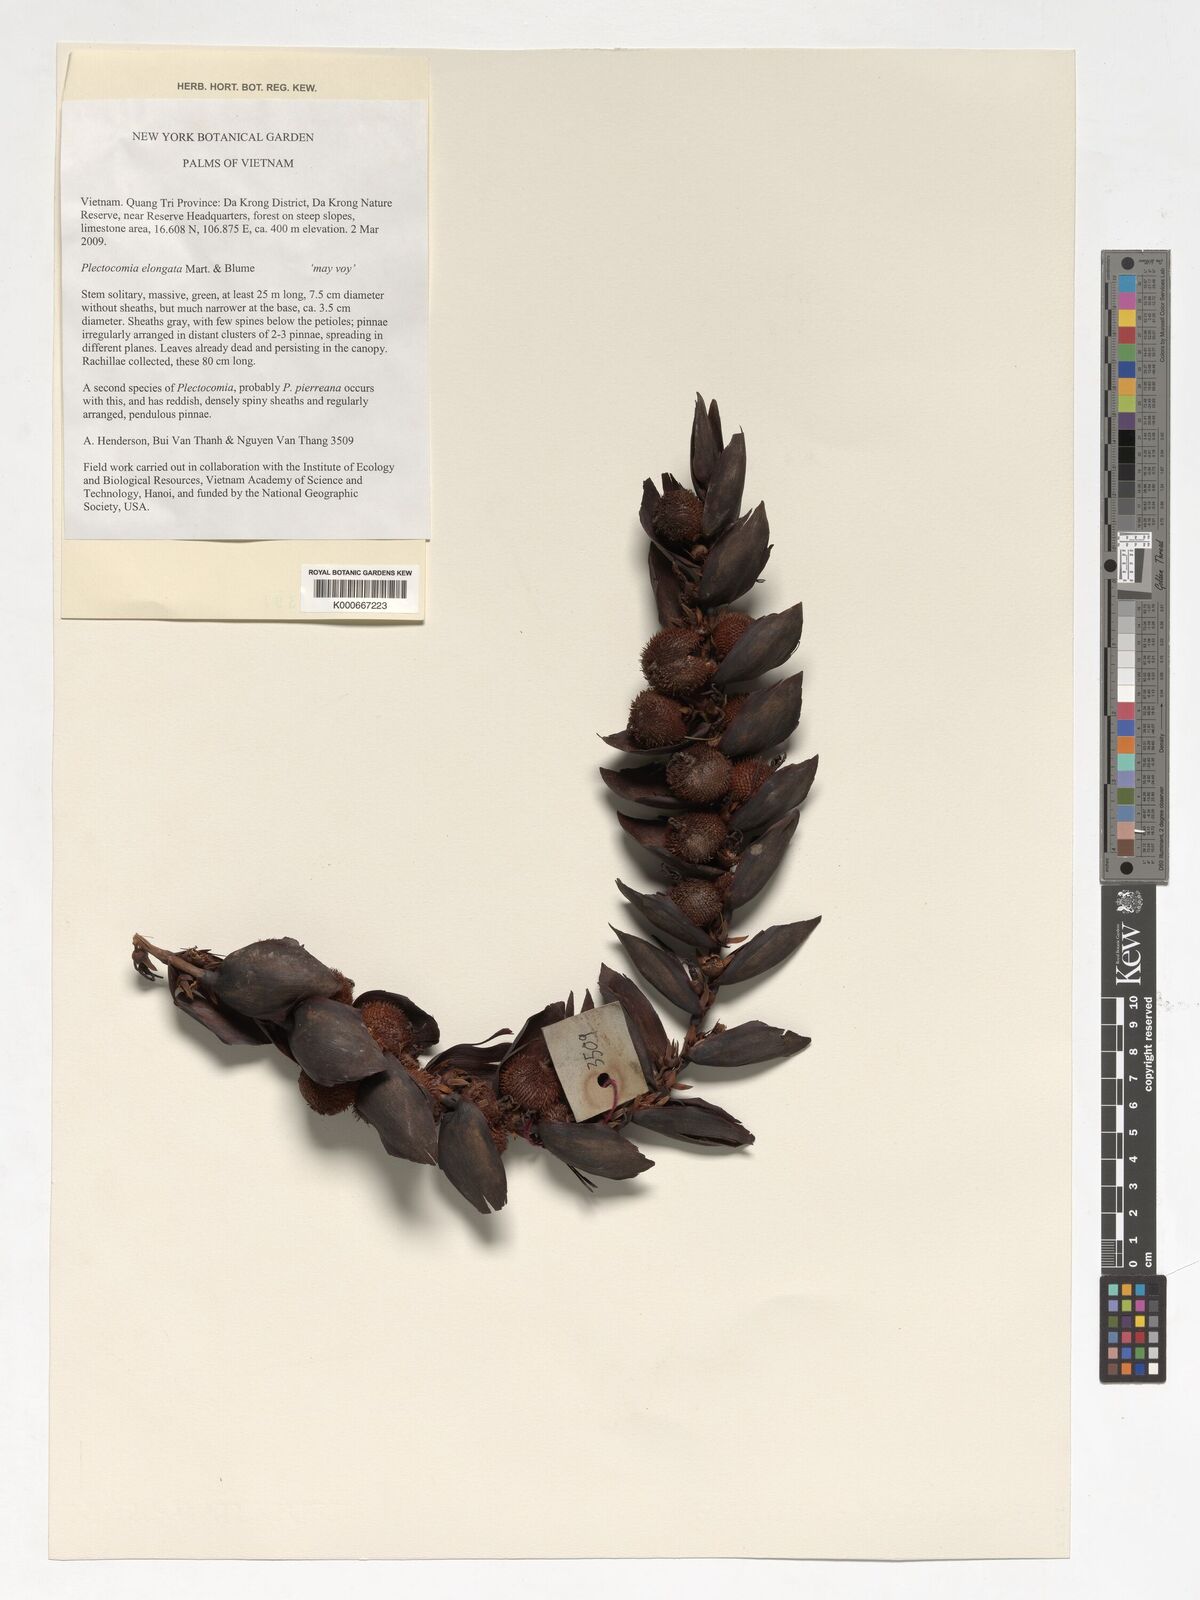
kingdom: Plantae
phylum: Tracheophyta
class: Liliopsida
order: Arecales
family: Arecaceae
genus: Plectocomia
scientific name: Plectocomia elongata
